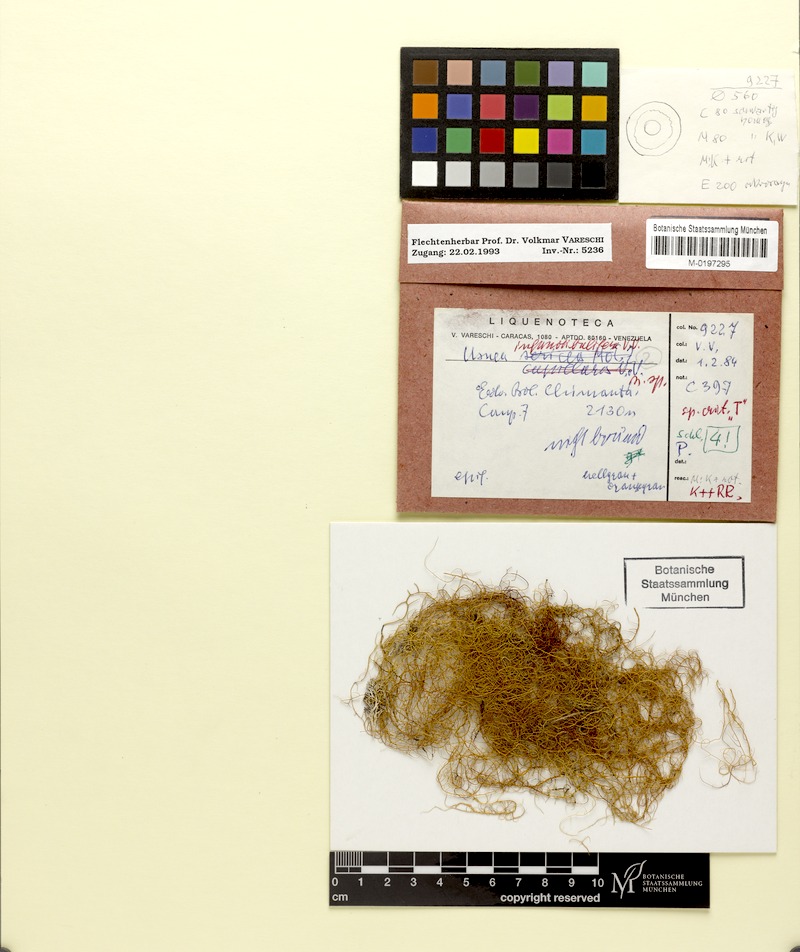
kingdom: Fungi
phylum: Ascomycota
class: Lecanoromycetes
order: Lecanorales
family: Parmeliaceae
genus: Usnea
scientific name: Usnea merrillii
